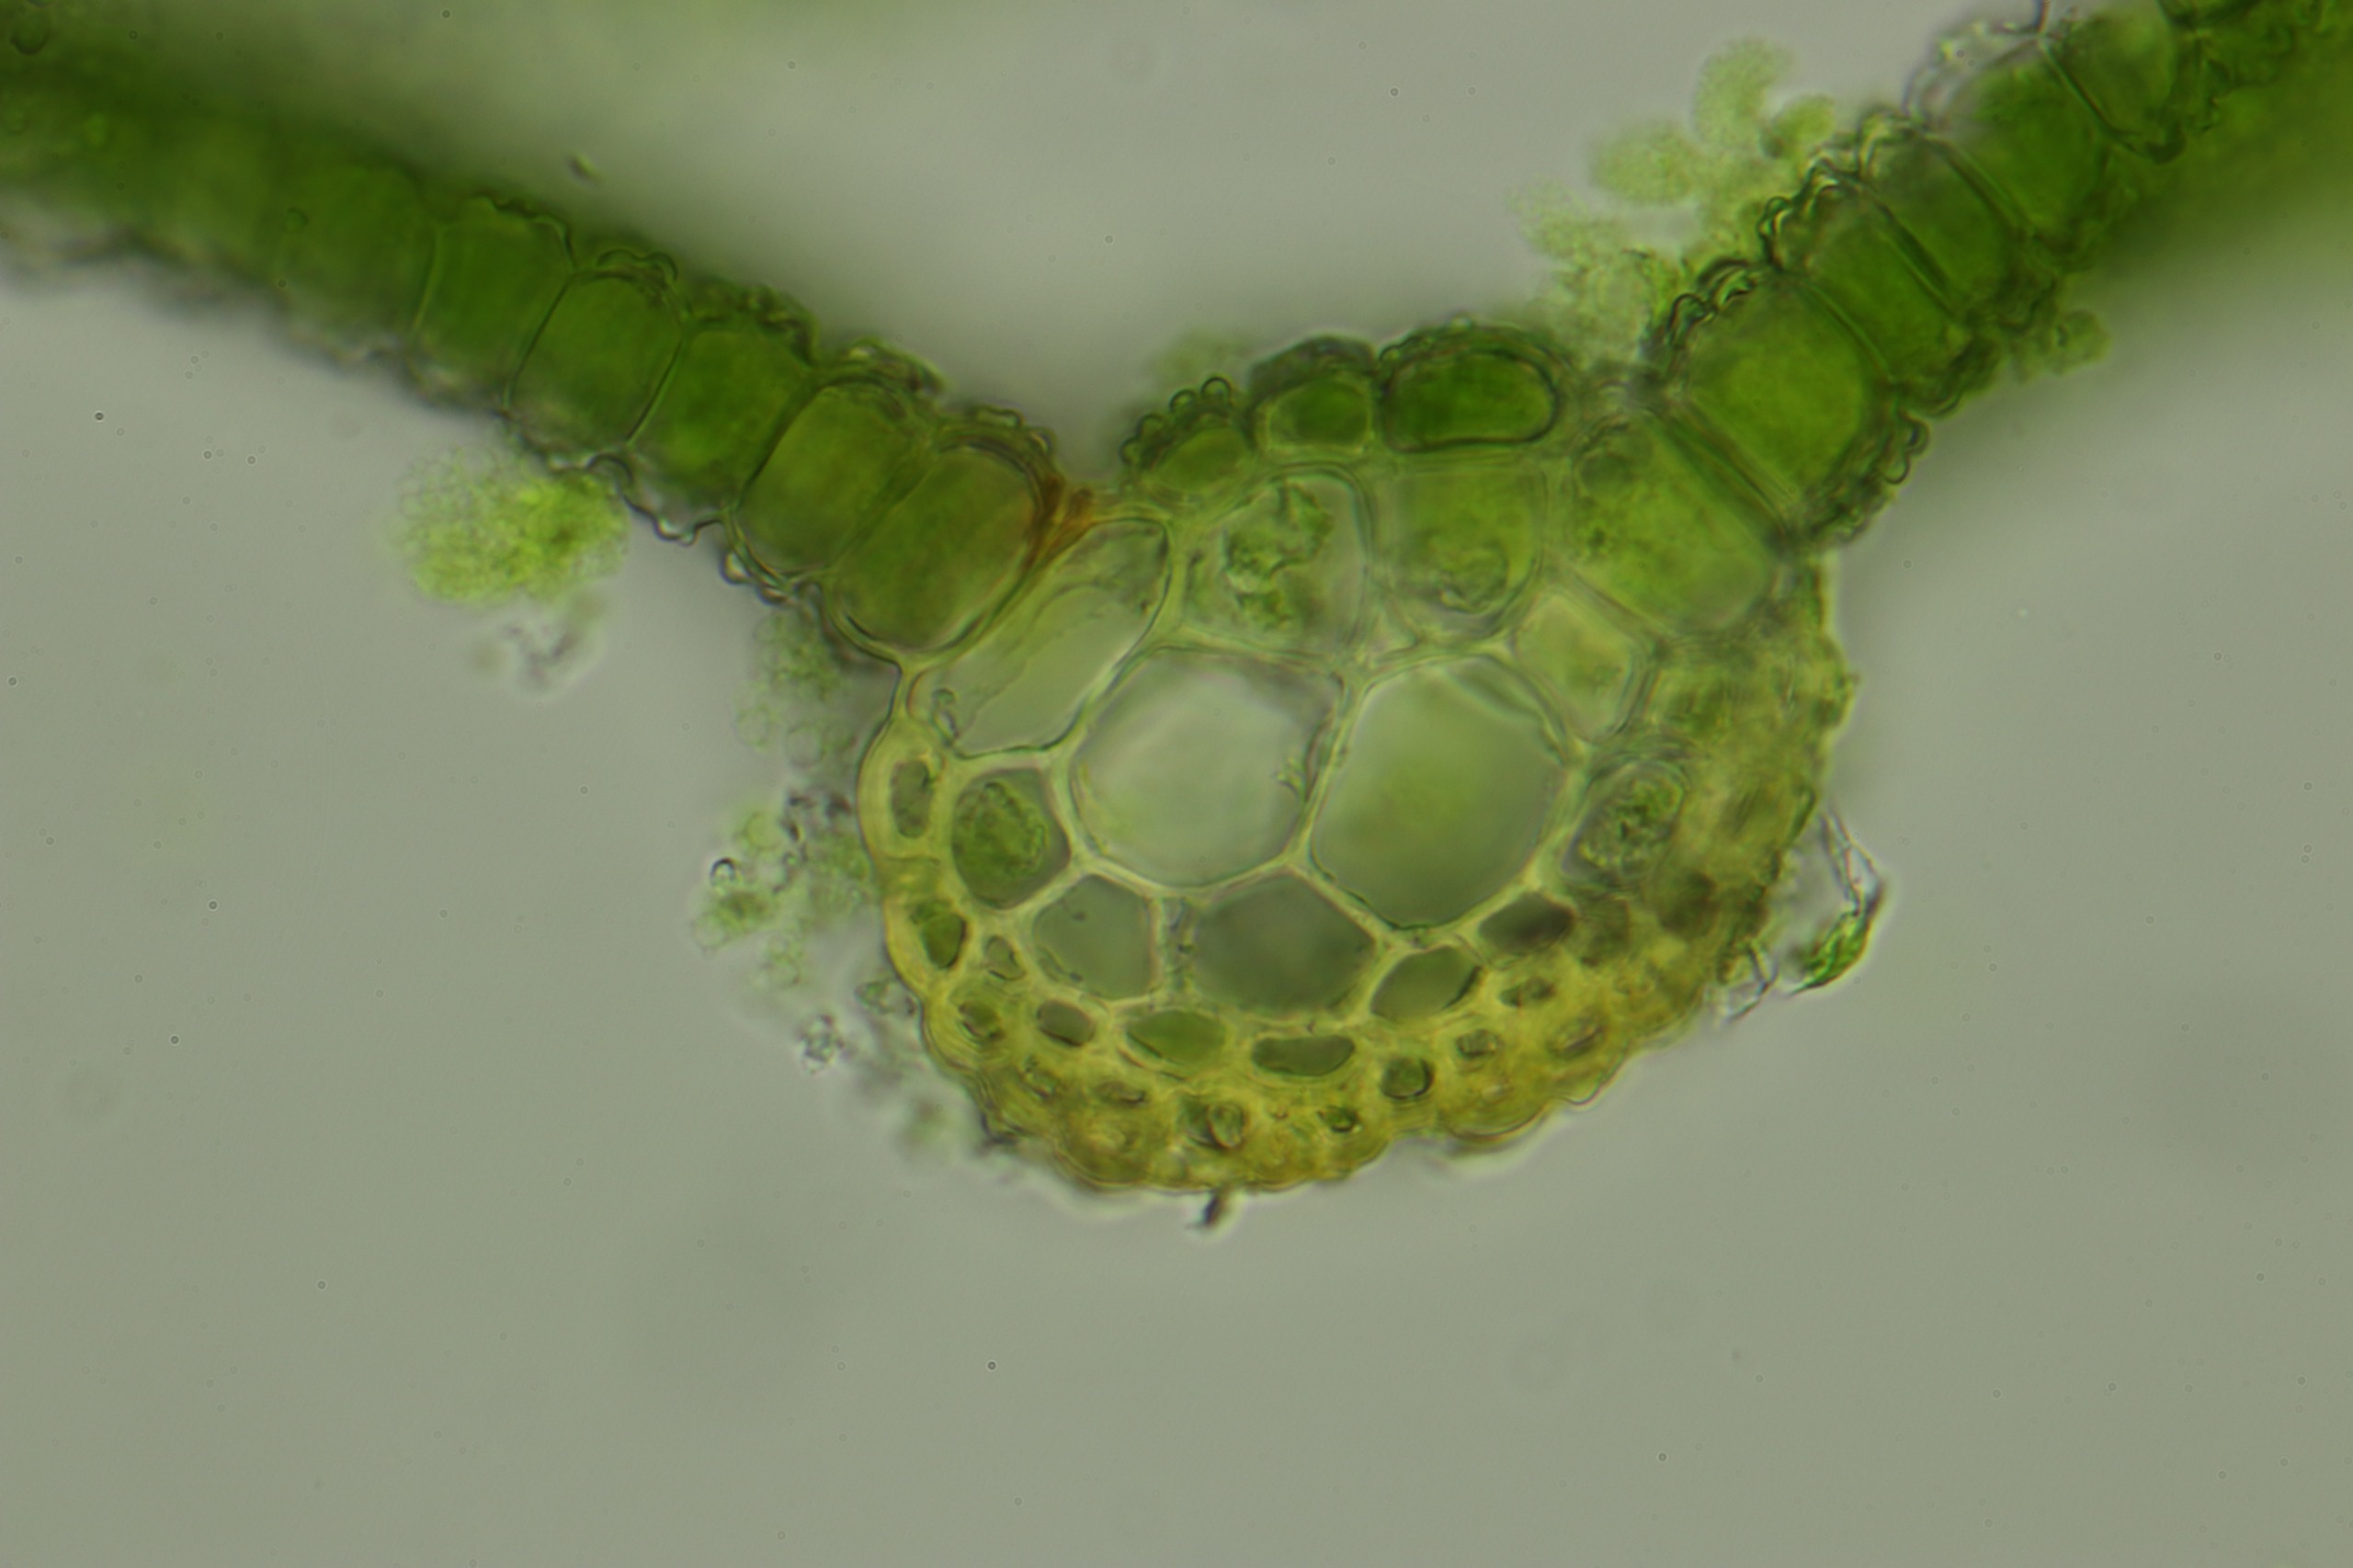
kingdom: Plantae
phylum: Bryophyta
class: Bryopsida
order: Pottiales
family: Pottiaceae
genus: Syntrichia
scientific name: Syntrichia ruralis
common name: Tag-hårstjerne
